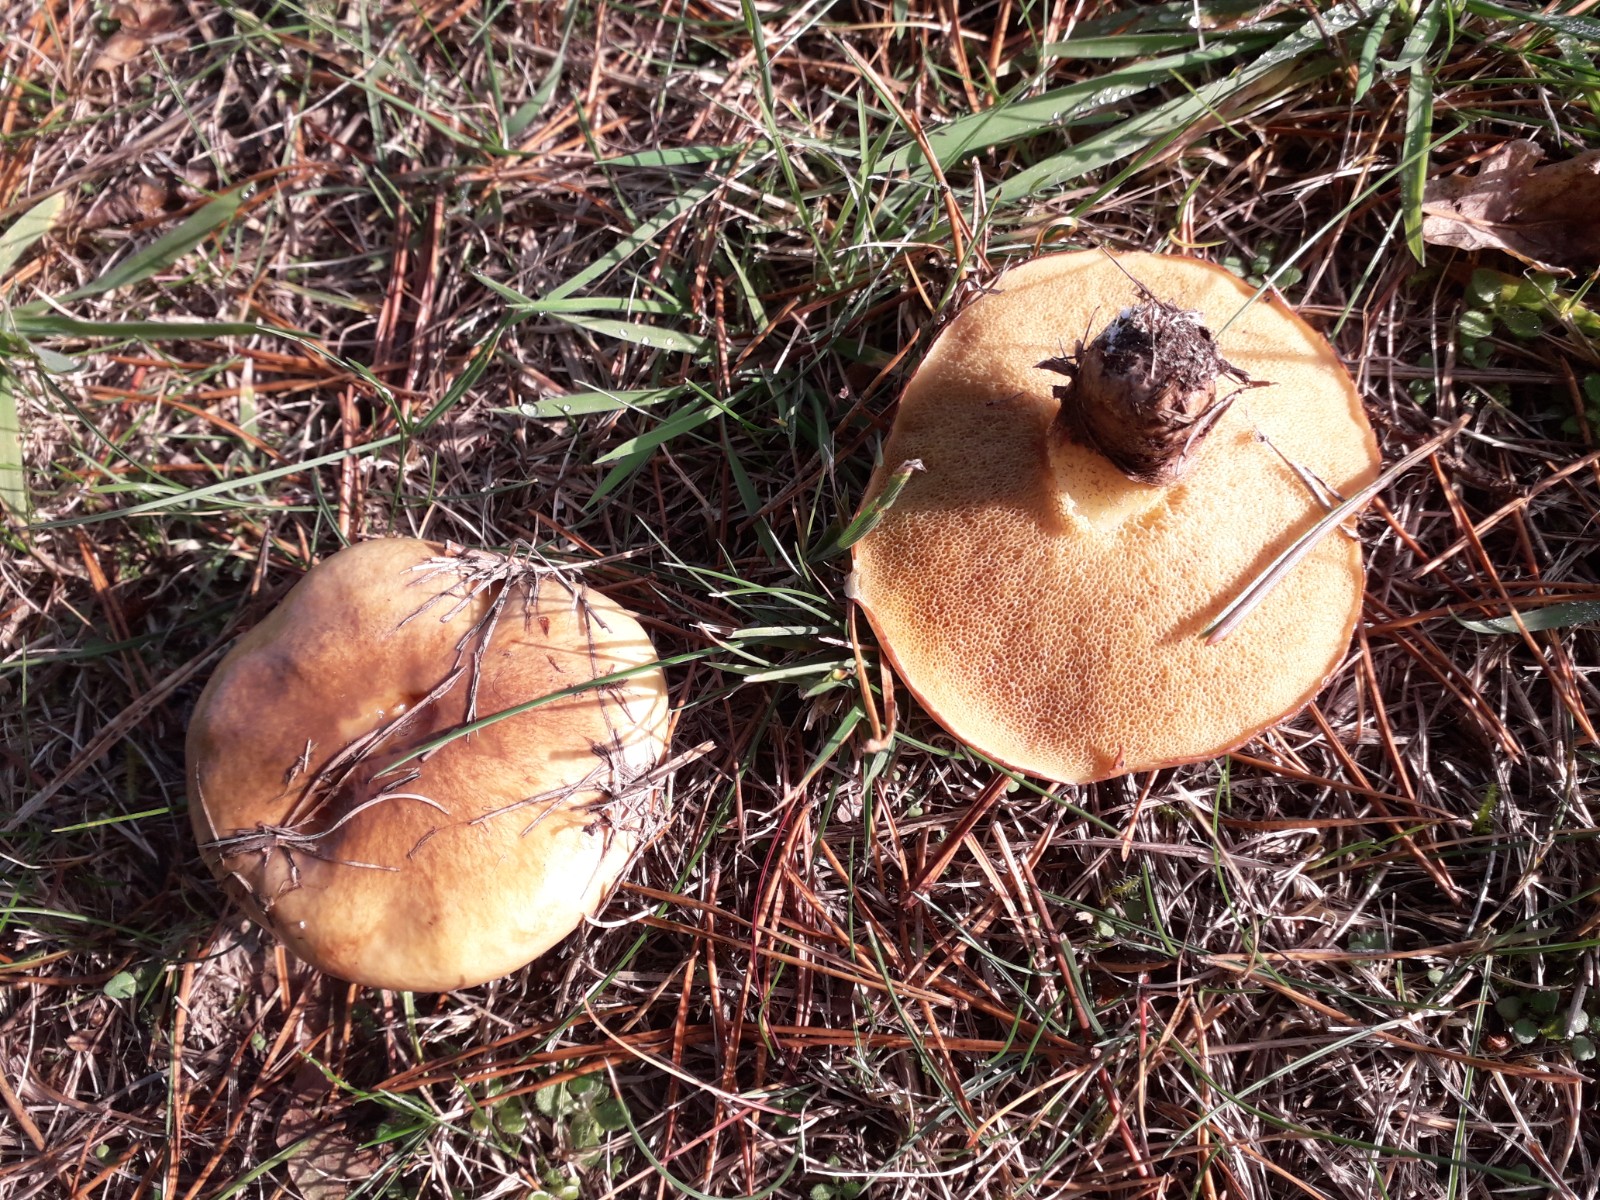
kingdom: Fungi
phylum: Basidiomycota
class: Agaricomycetes
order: Boletales
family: Suillaceae
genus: Suillus
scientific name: Suillus luteus
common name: brungul slimrørhat
